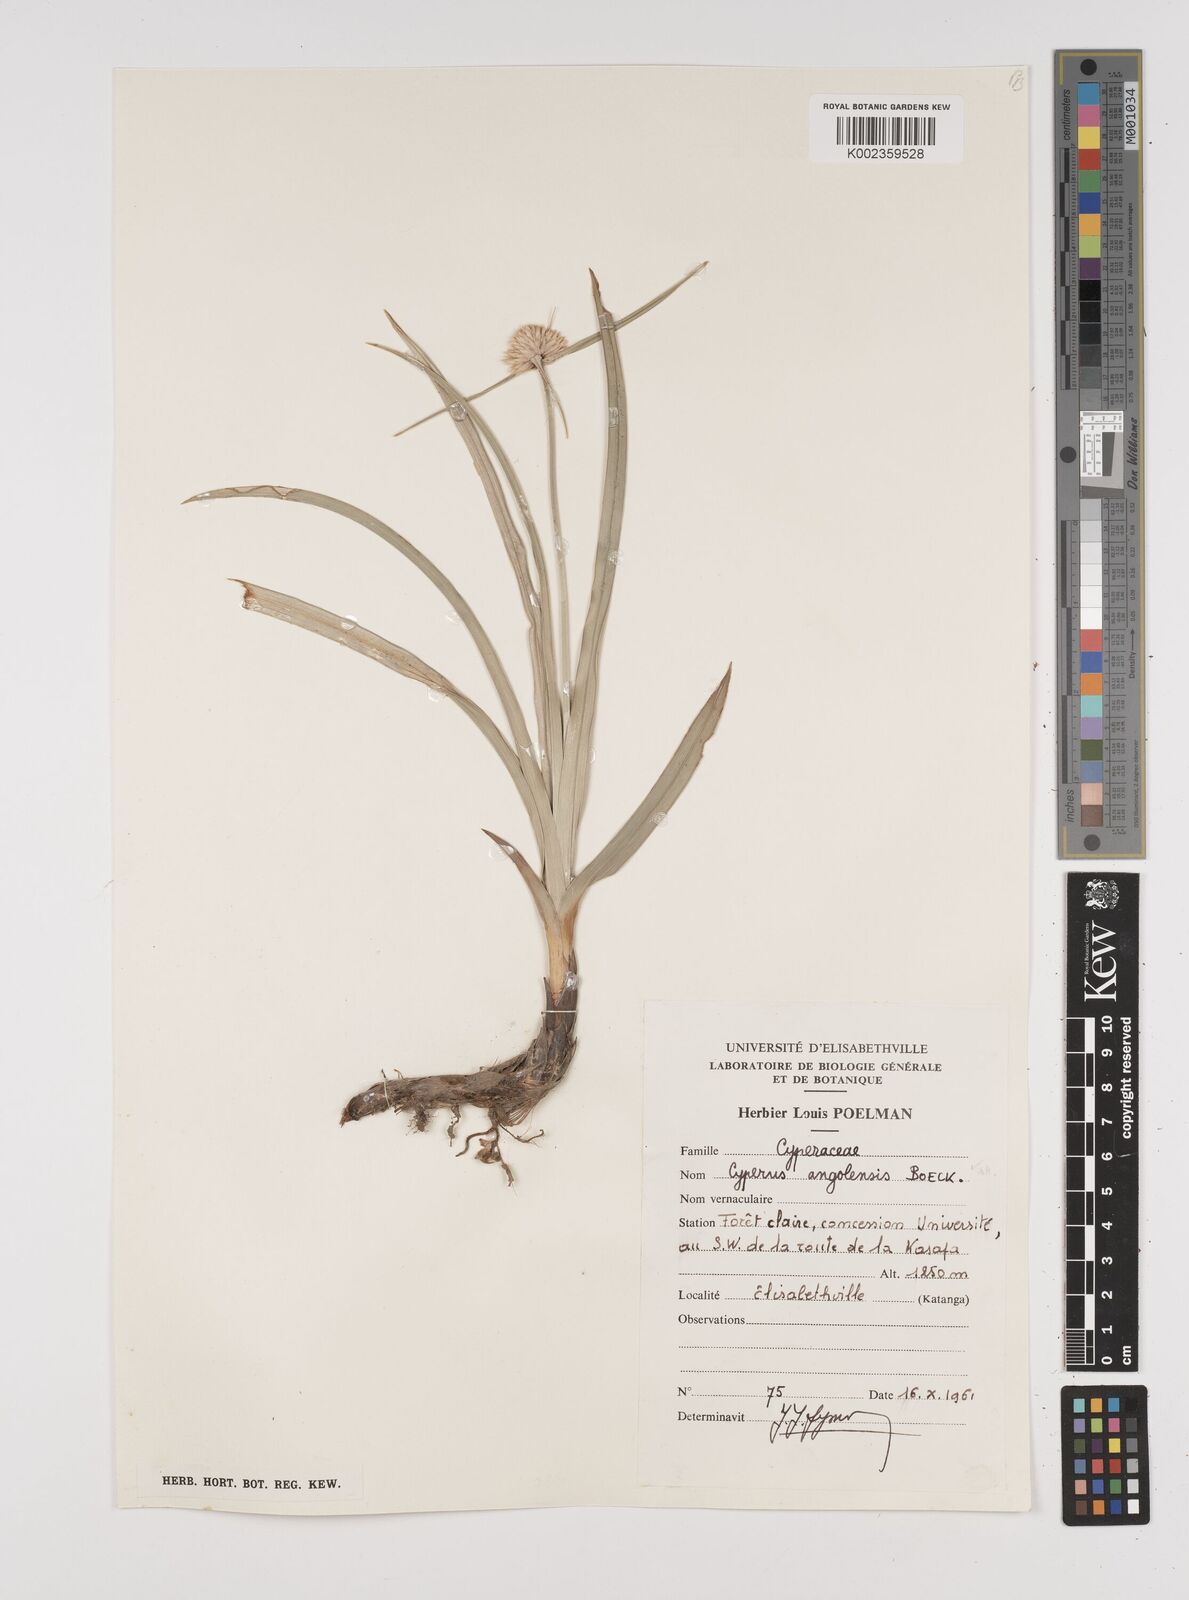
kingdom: Plantae
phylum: Tracheophyta
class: Liliopsida
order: Poales
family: Cyperaceae
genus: Cyperus
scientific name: Cyperus angolensis
